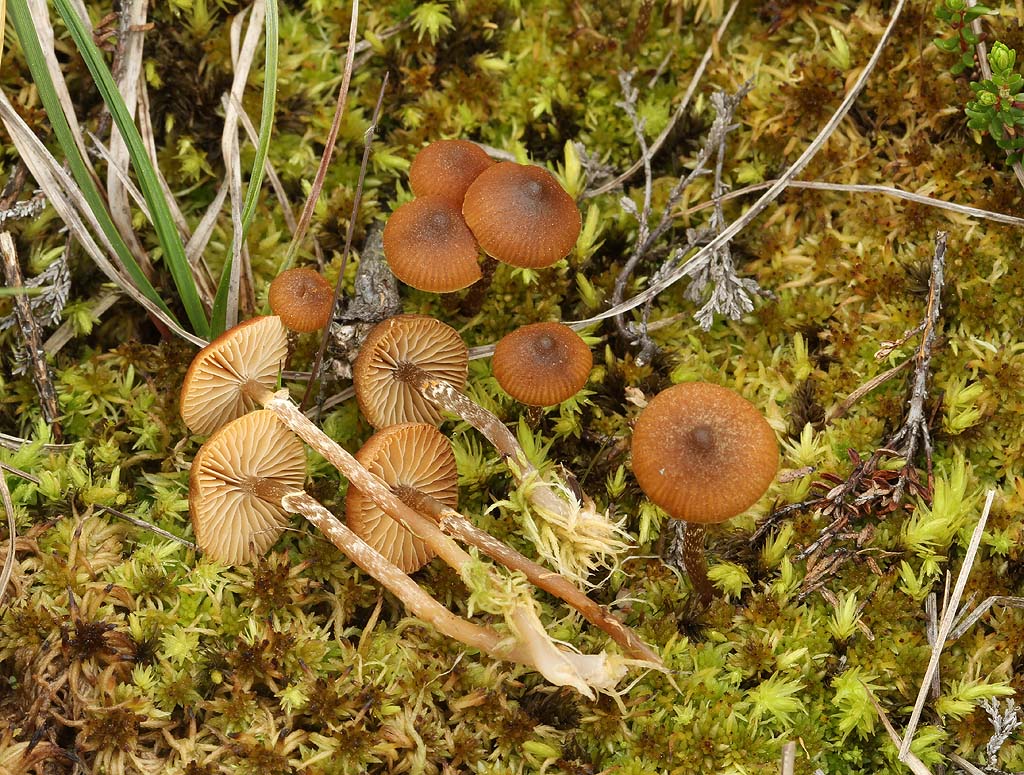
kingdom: Fungi
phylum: Basidiomycota
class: Agaricomycetes
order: Agaricales
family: Hymenogastraceae
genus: Galerina
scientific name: Galerina paludosa
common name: mose-hjelmhat
